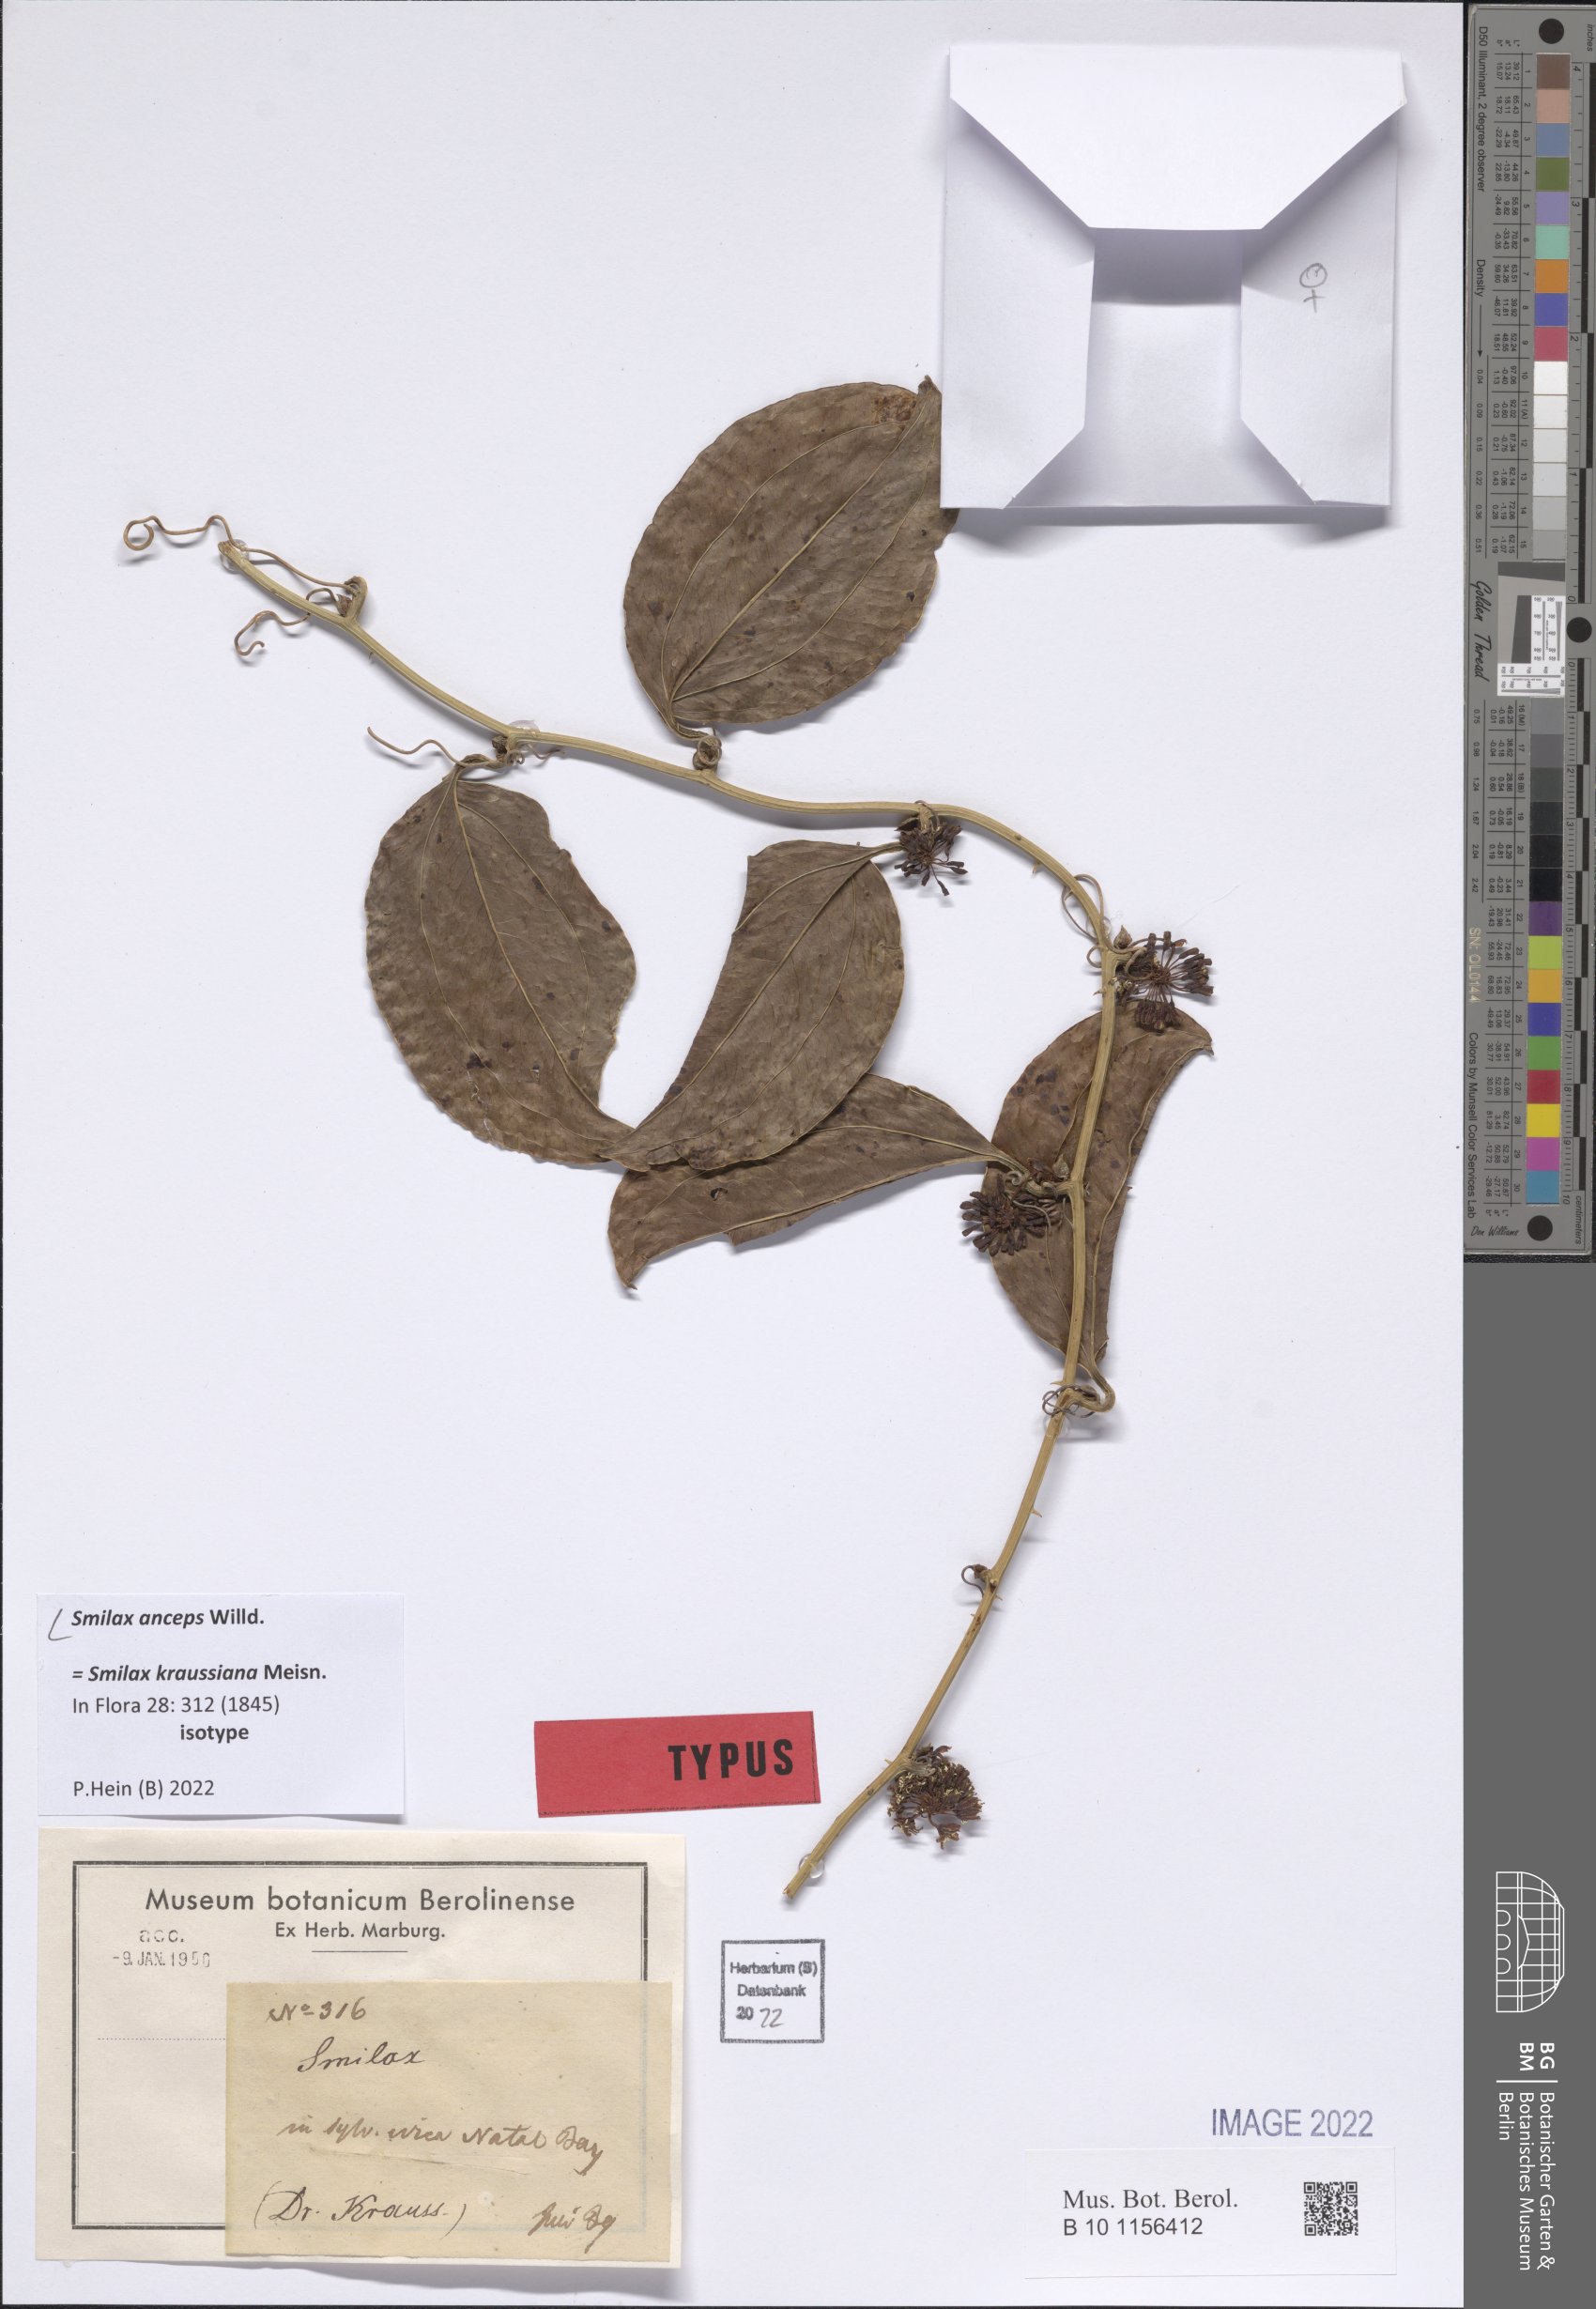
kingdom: Plantae
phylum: Tracheophyta
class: Liliopsida
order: Liliales
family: Smilacaceae
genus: Smilax
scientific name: Smilax anceps
